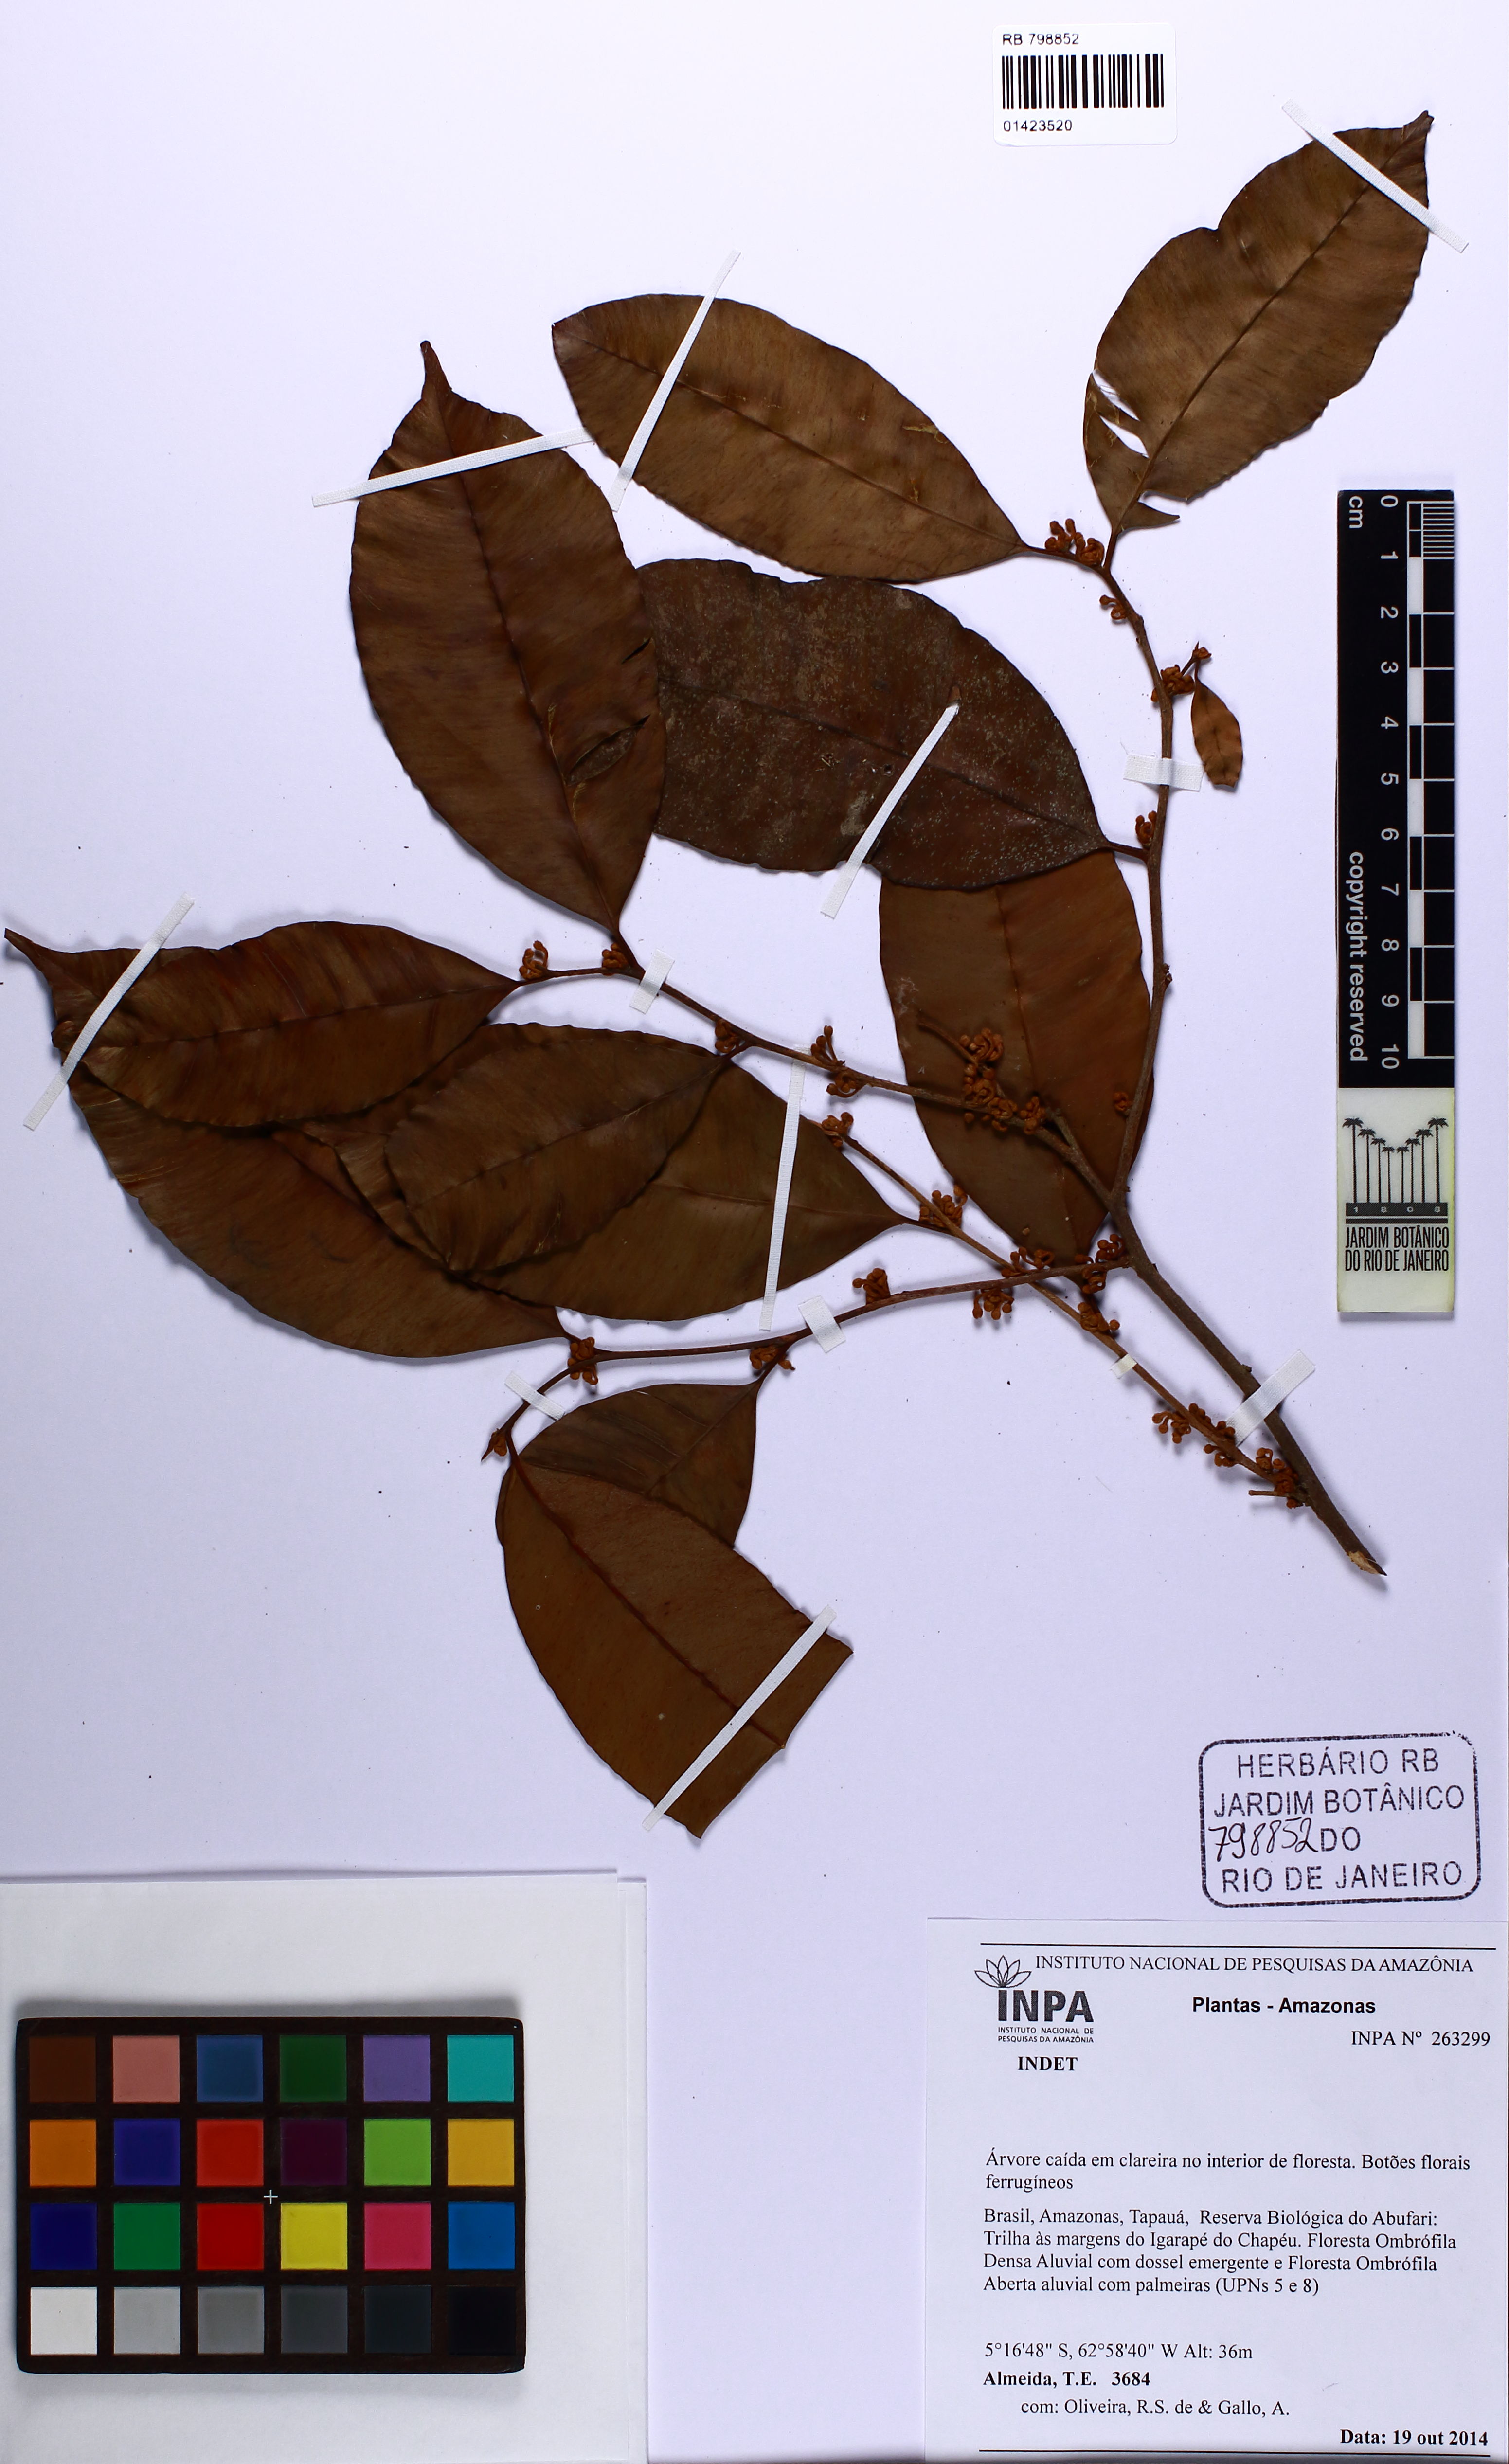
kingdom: Plantae
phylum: Tracheophyta
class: Magnoliopsida
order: Ericales
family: Sapotaceae
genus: Micropholis
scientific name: Micropholis
